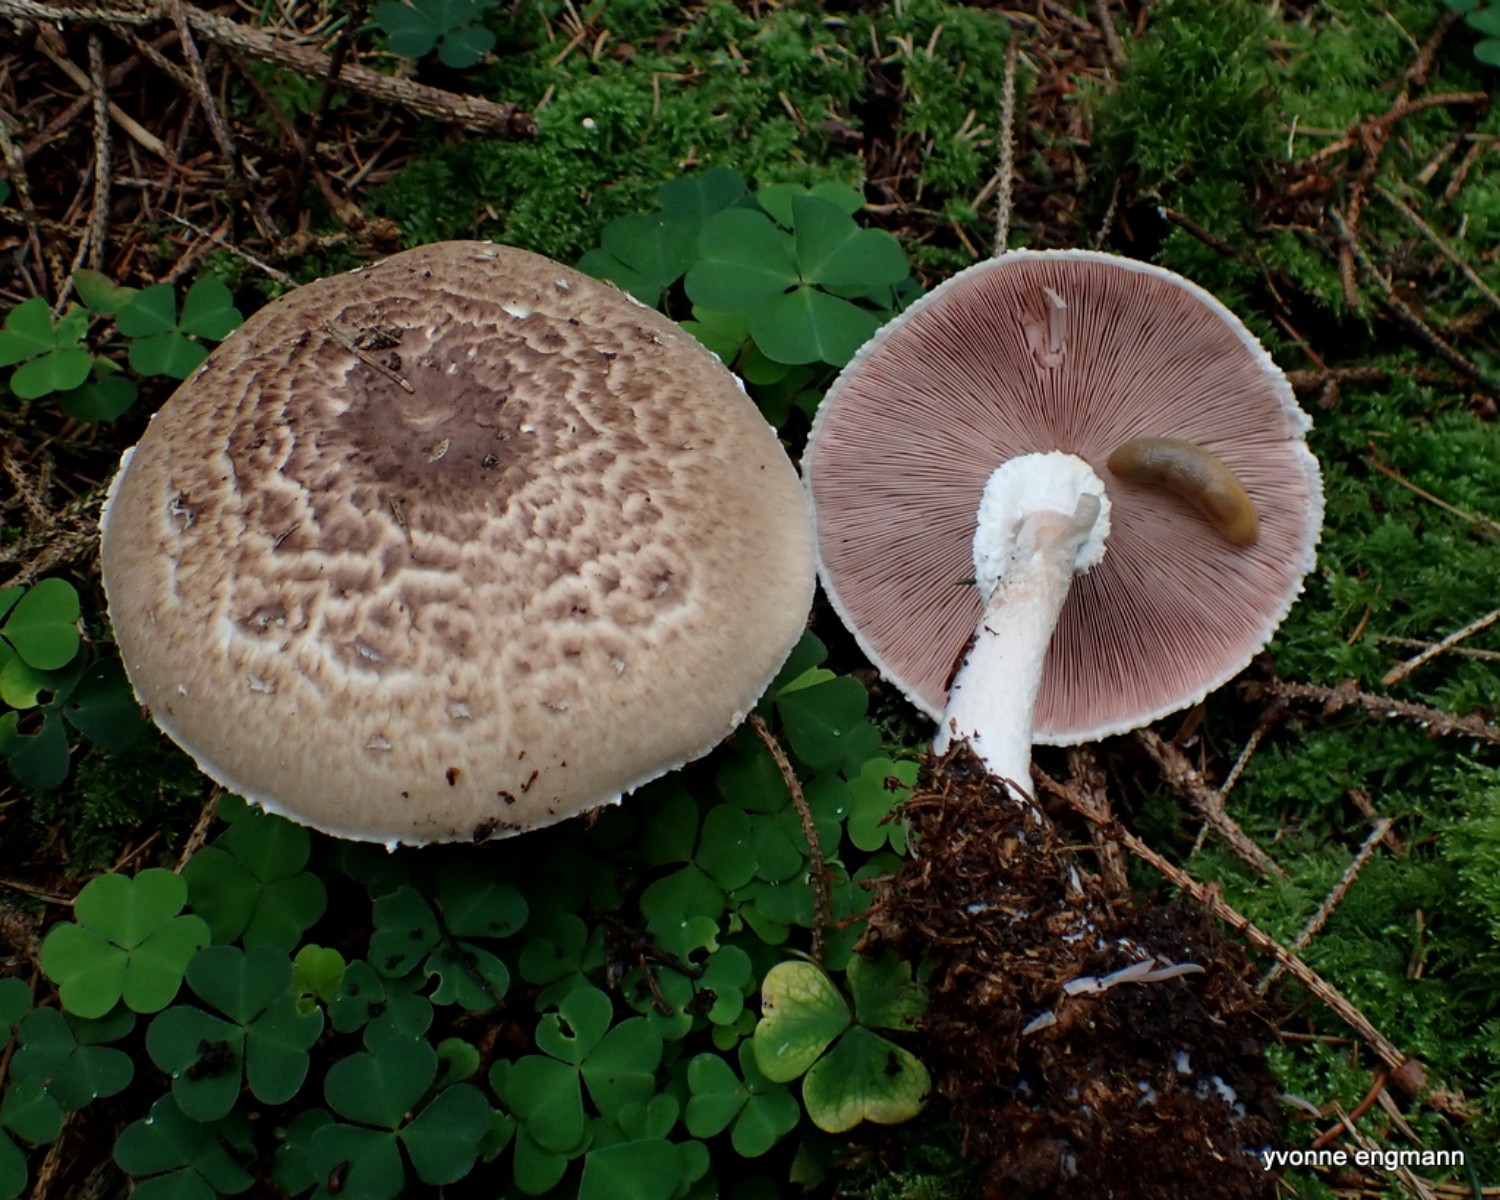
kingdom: Fungi
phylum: Basidiomycota
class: Agaricomycetes
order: Agaricales
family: Agaricaceae
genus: Agaricus
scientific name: Agaricus impudicus
